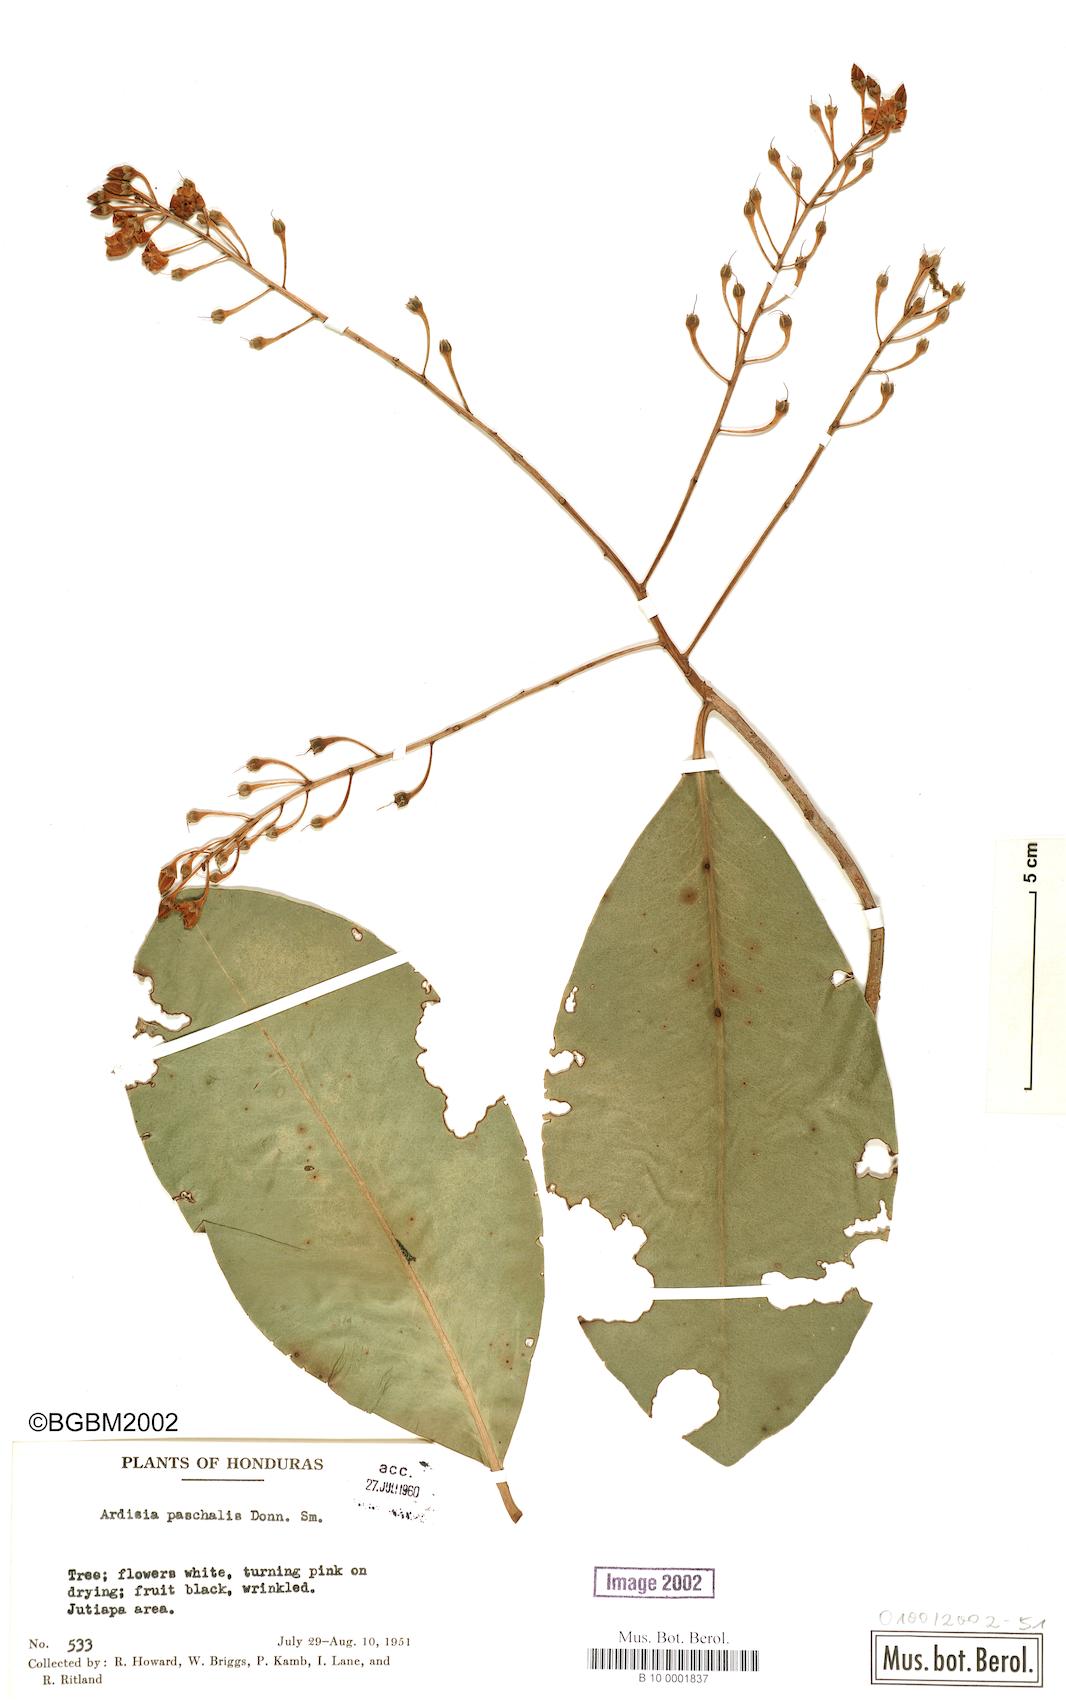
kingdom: Plantae
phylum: Tracheophyta
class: Magnoliopsida
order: Ericales
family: Primulaceae
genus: Ardisia
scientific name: Ardisia paschalis
